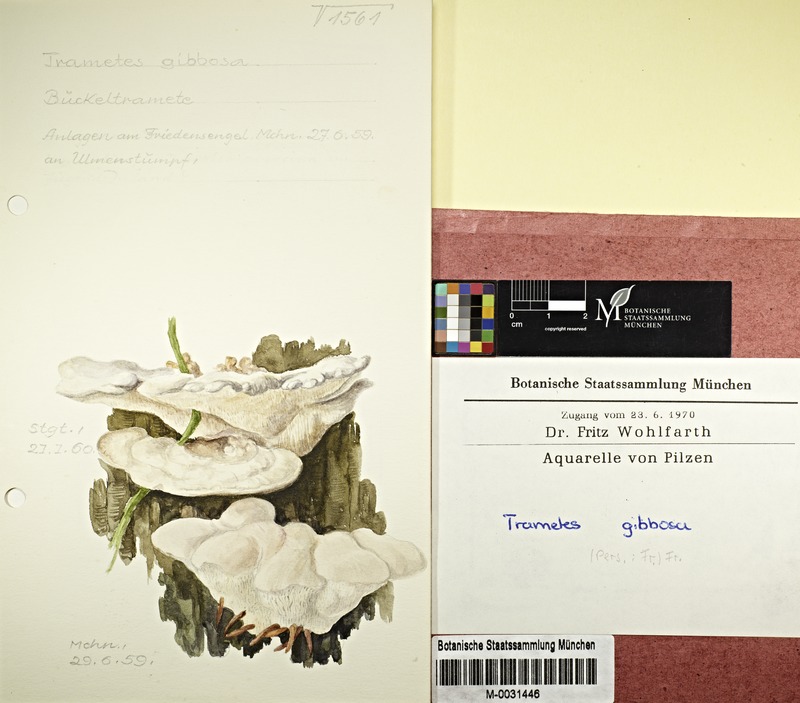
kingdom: Fungi
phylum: Basidiomycota
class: Agaricomycetes
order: Polyporales
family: Polyporaceae
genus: Trametes
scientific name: Trametes gibbosa
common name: Lumpy bracket
